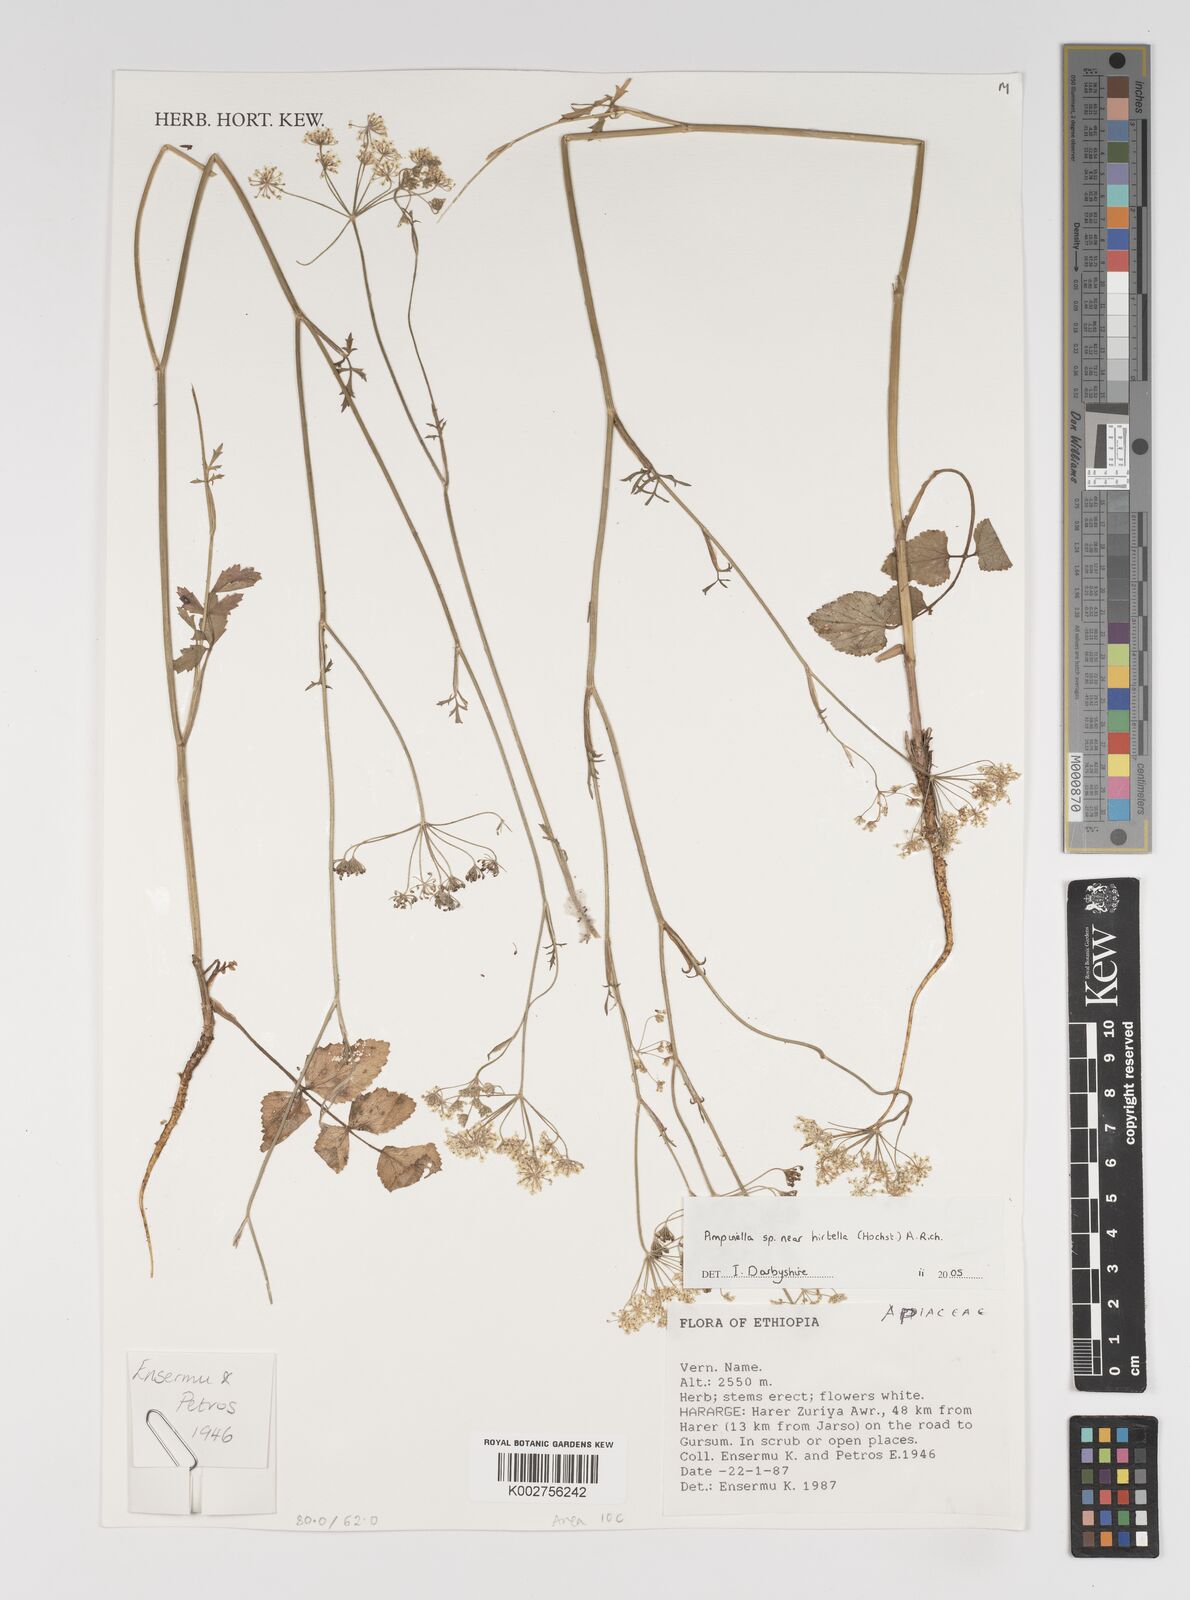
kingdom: Plantae
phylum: Tracheophyta
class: Magnoliopsida
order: Apiales
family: Apiaceae
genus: Pimpinella
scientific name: Pimpinella hirtella
